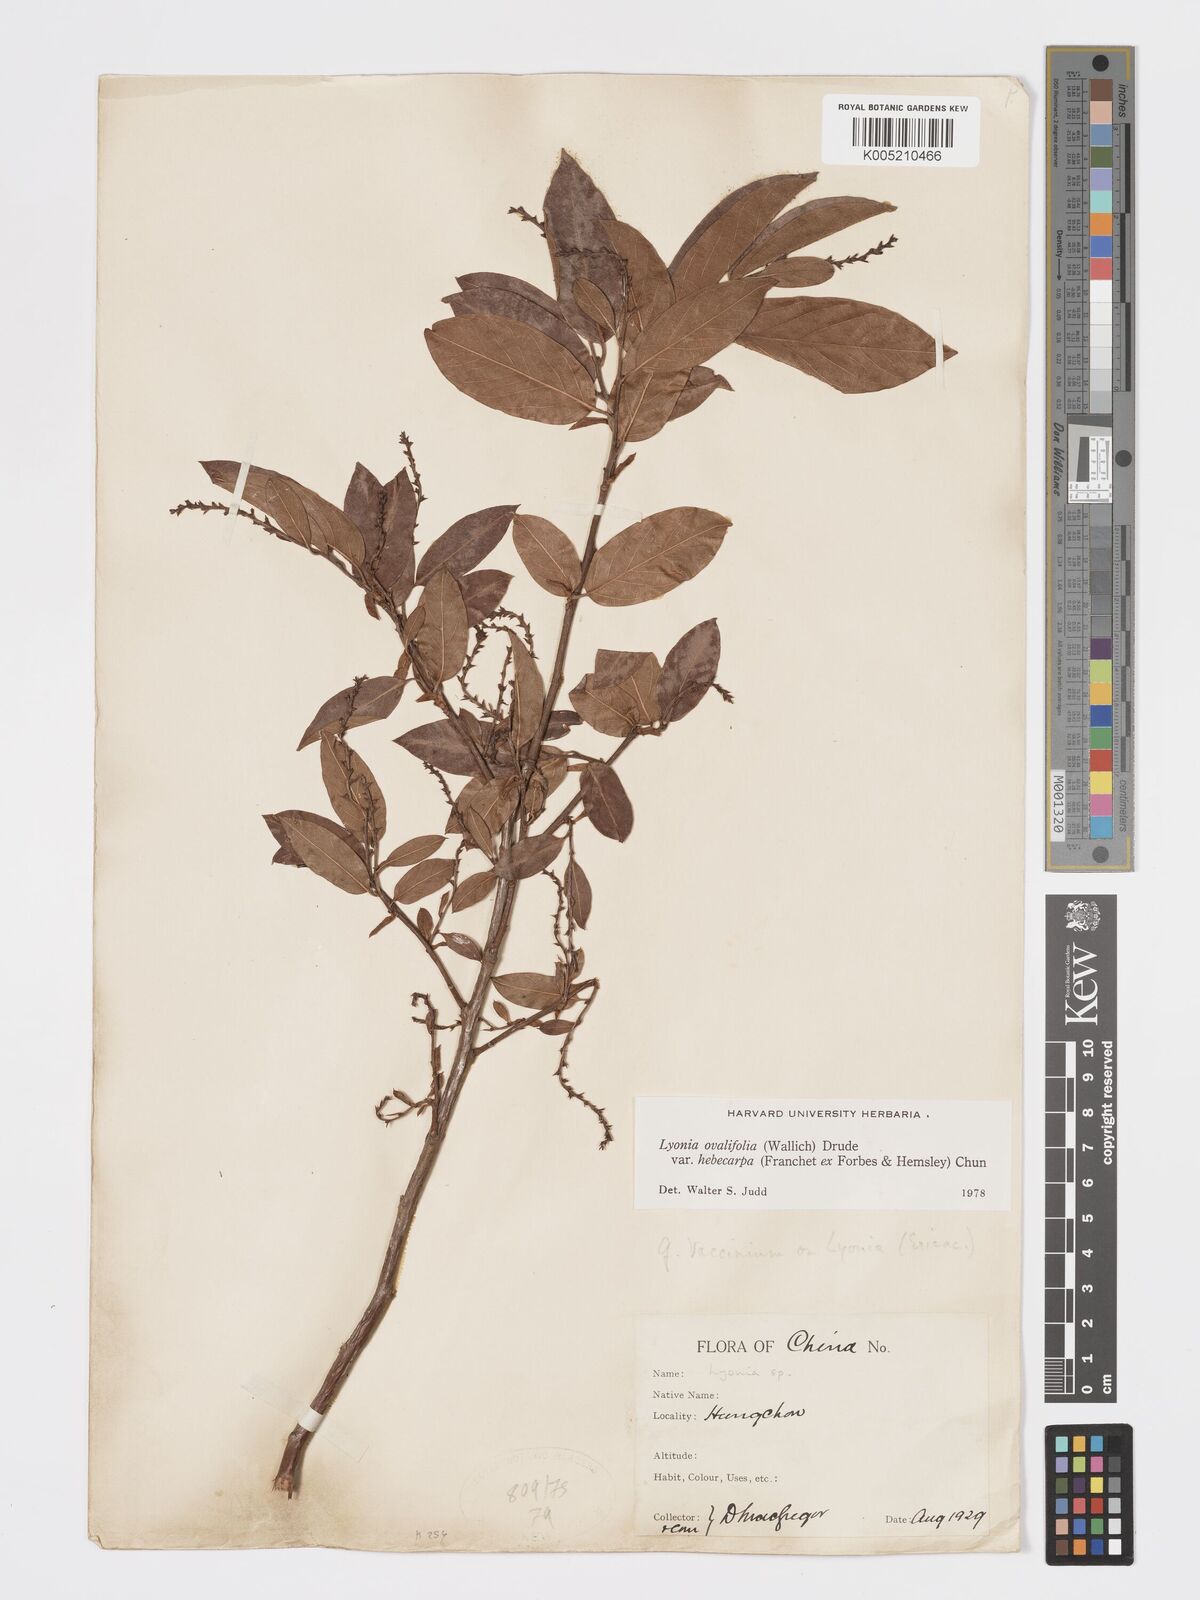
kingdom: Plantae
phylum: Tracheophyta
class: Magnoliopsida
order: Ericales
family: Ericaceae
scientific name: Ericaceae
